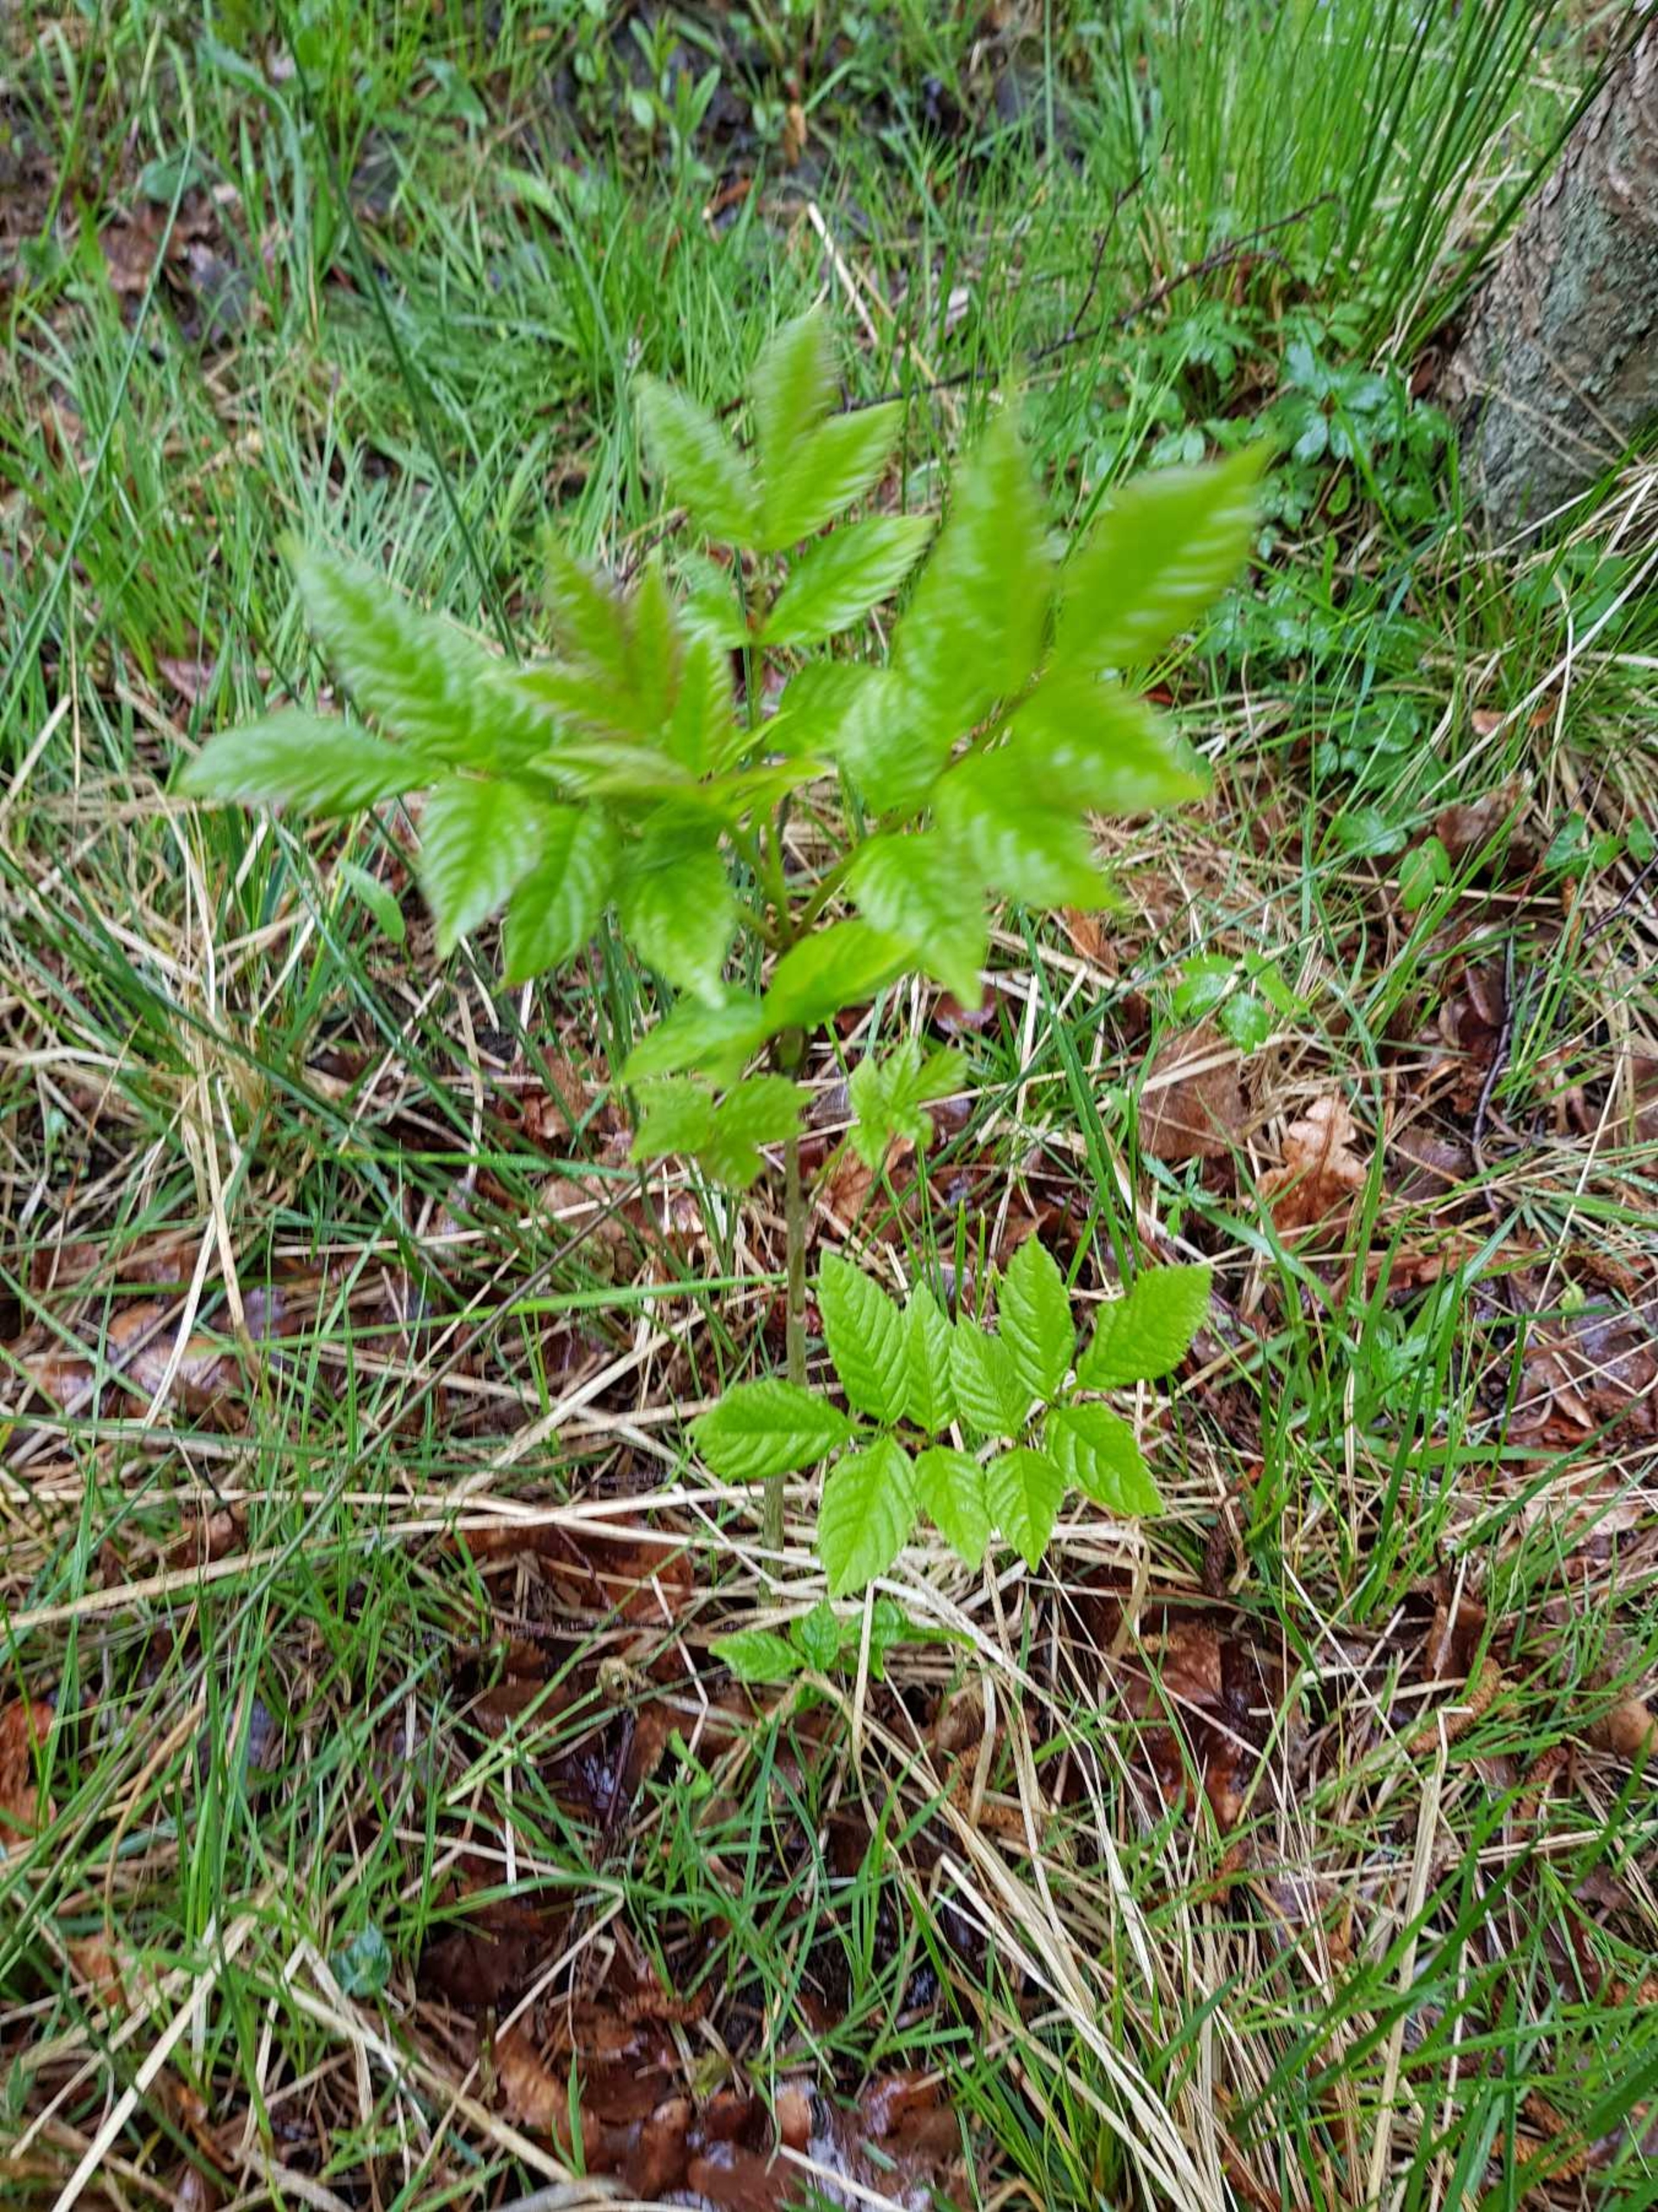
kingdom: Plantae
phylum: Tracheophyta
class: Magnoliopsida
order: Lamiales
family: Oleaceae
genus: Fraxinus
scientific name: Fraxinus excelsior
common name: Ask
